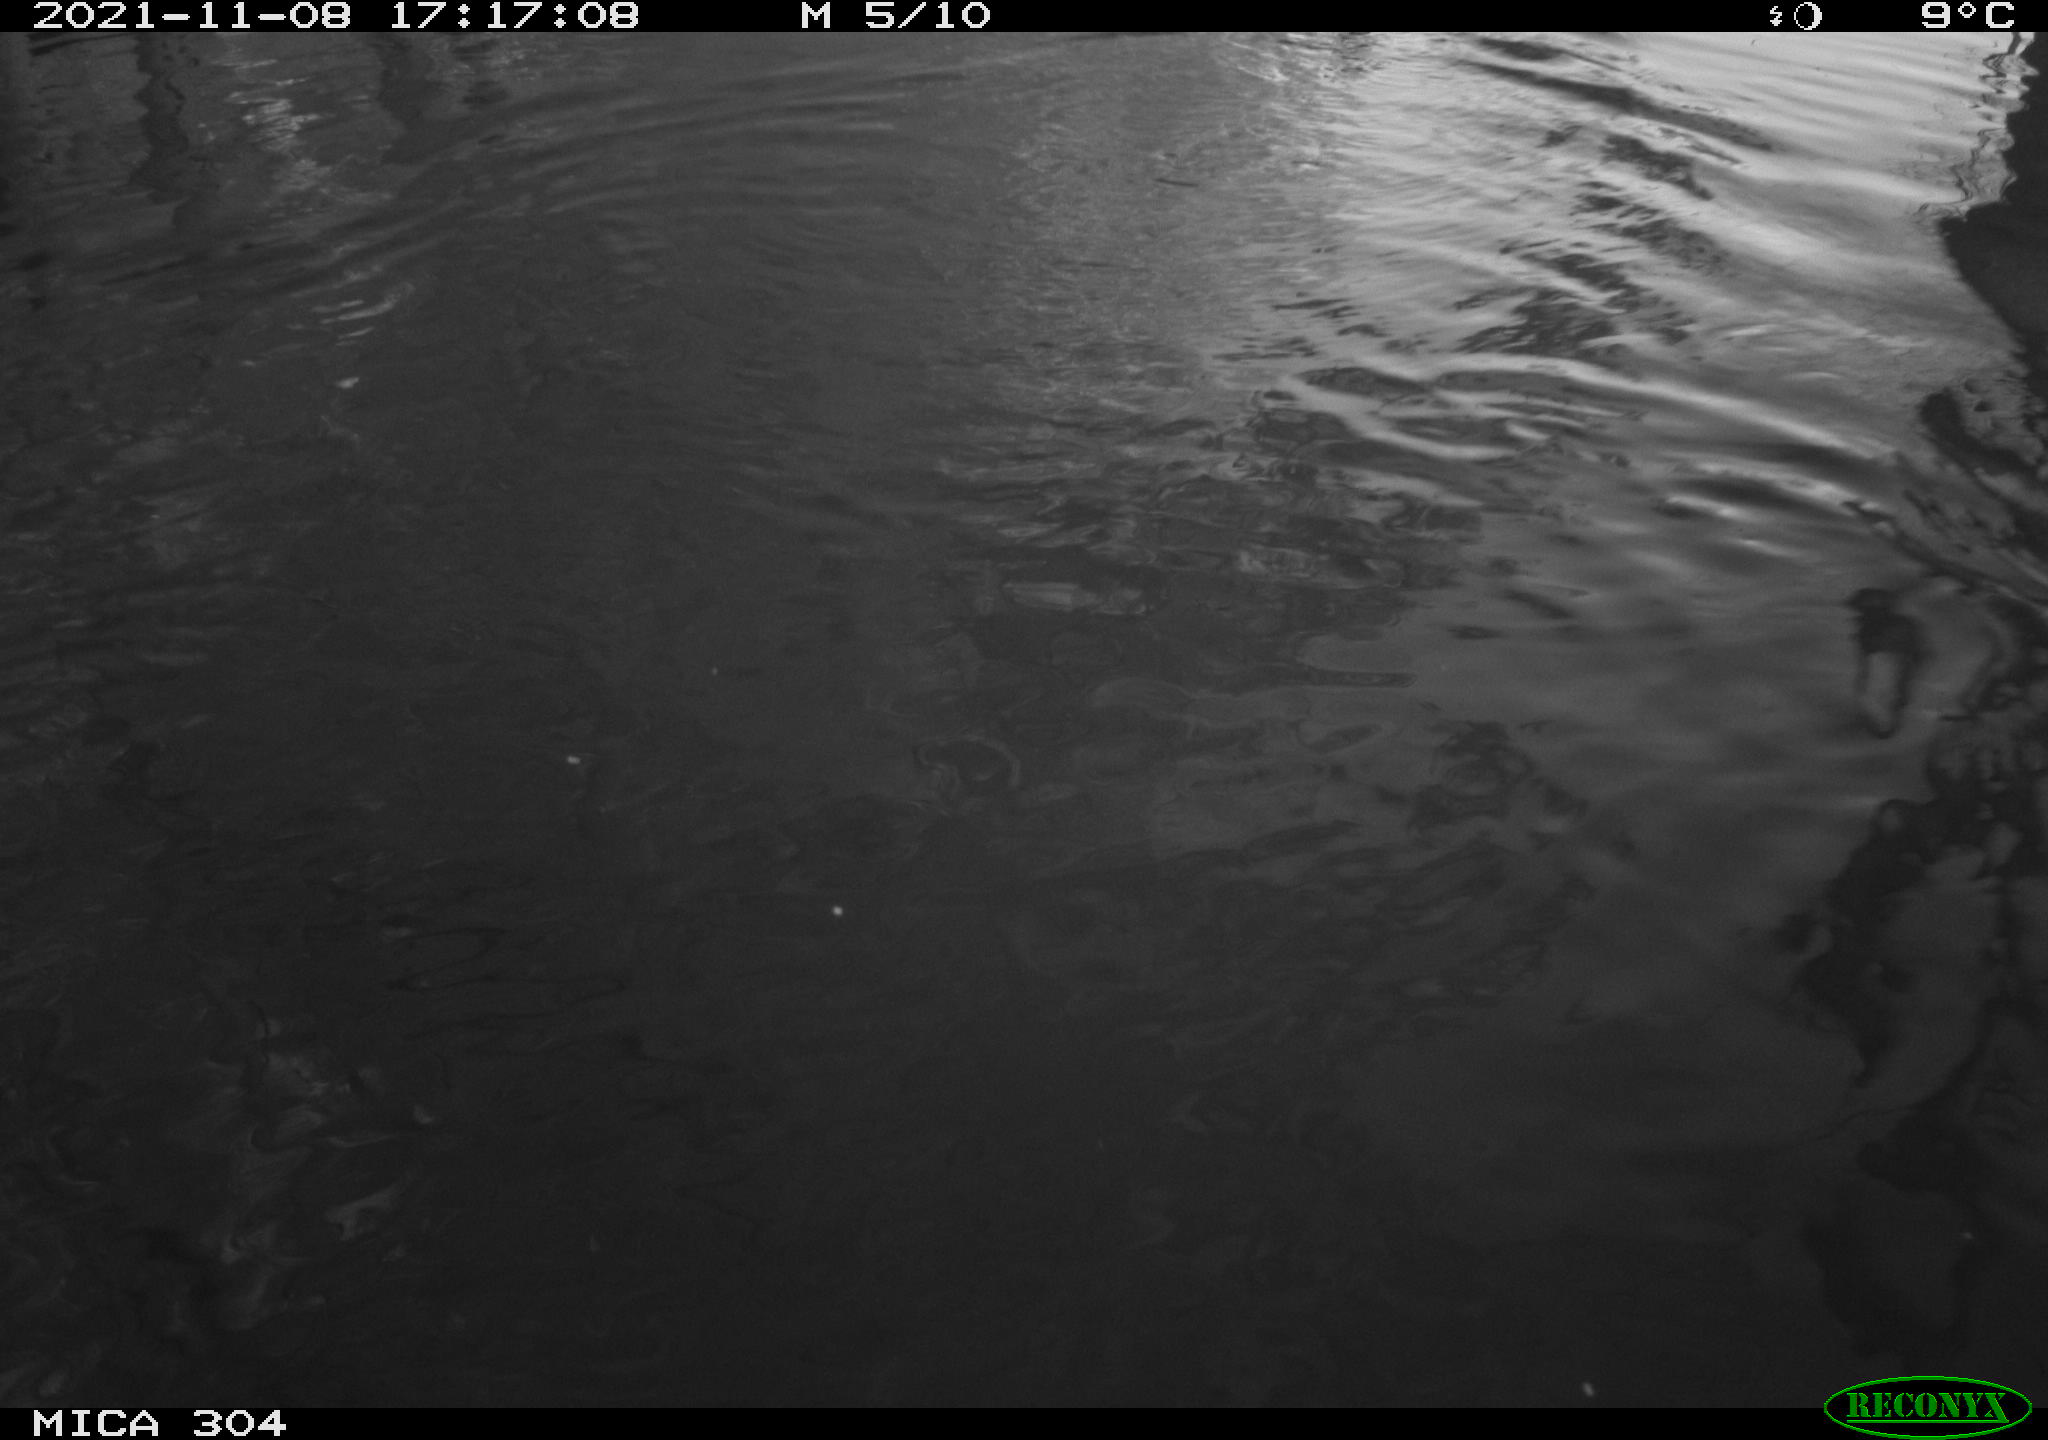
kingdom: Animalia
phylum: Chordata
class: Aves
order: Gruiformes
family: Rallidae
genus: Fulica
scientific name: Fulica atra
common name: Eurasian coot
